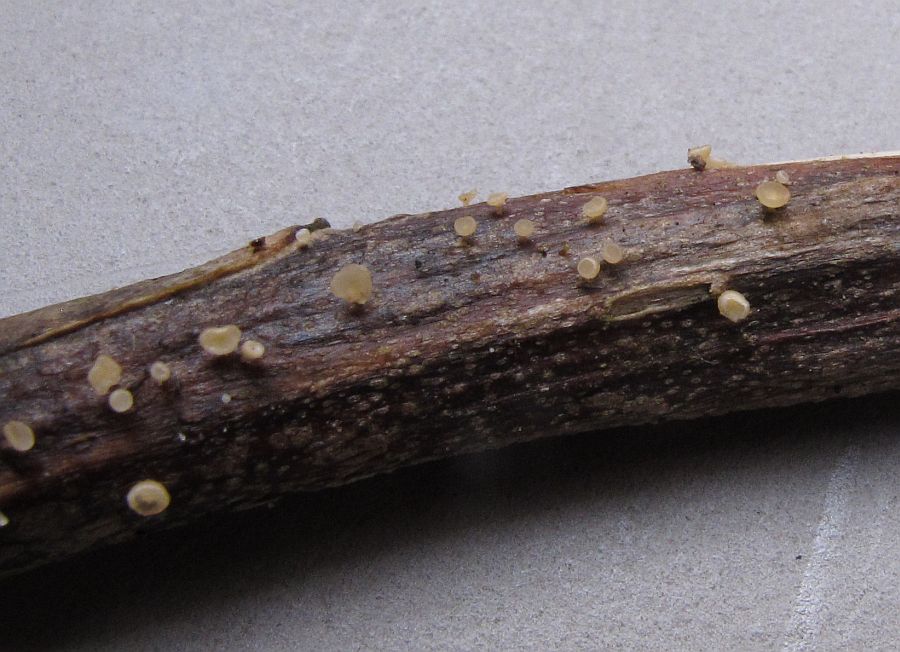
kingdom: Fungi
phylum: Ascomycota
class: Leotiomycetes
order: Helotiales
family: Helotiaceae
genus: Cyathicula
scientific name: Cyathicula cyathoidea
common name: pokal-stilkskive
